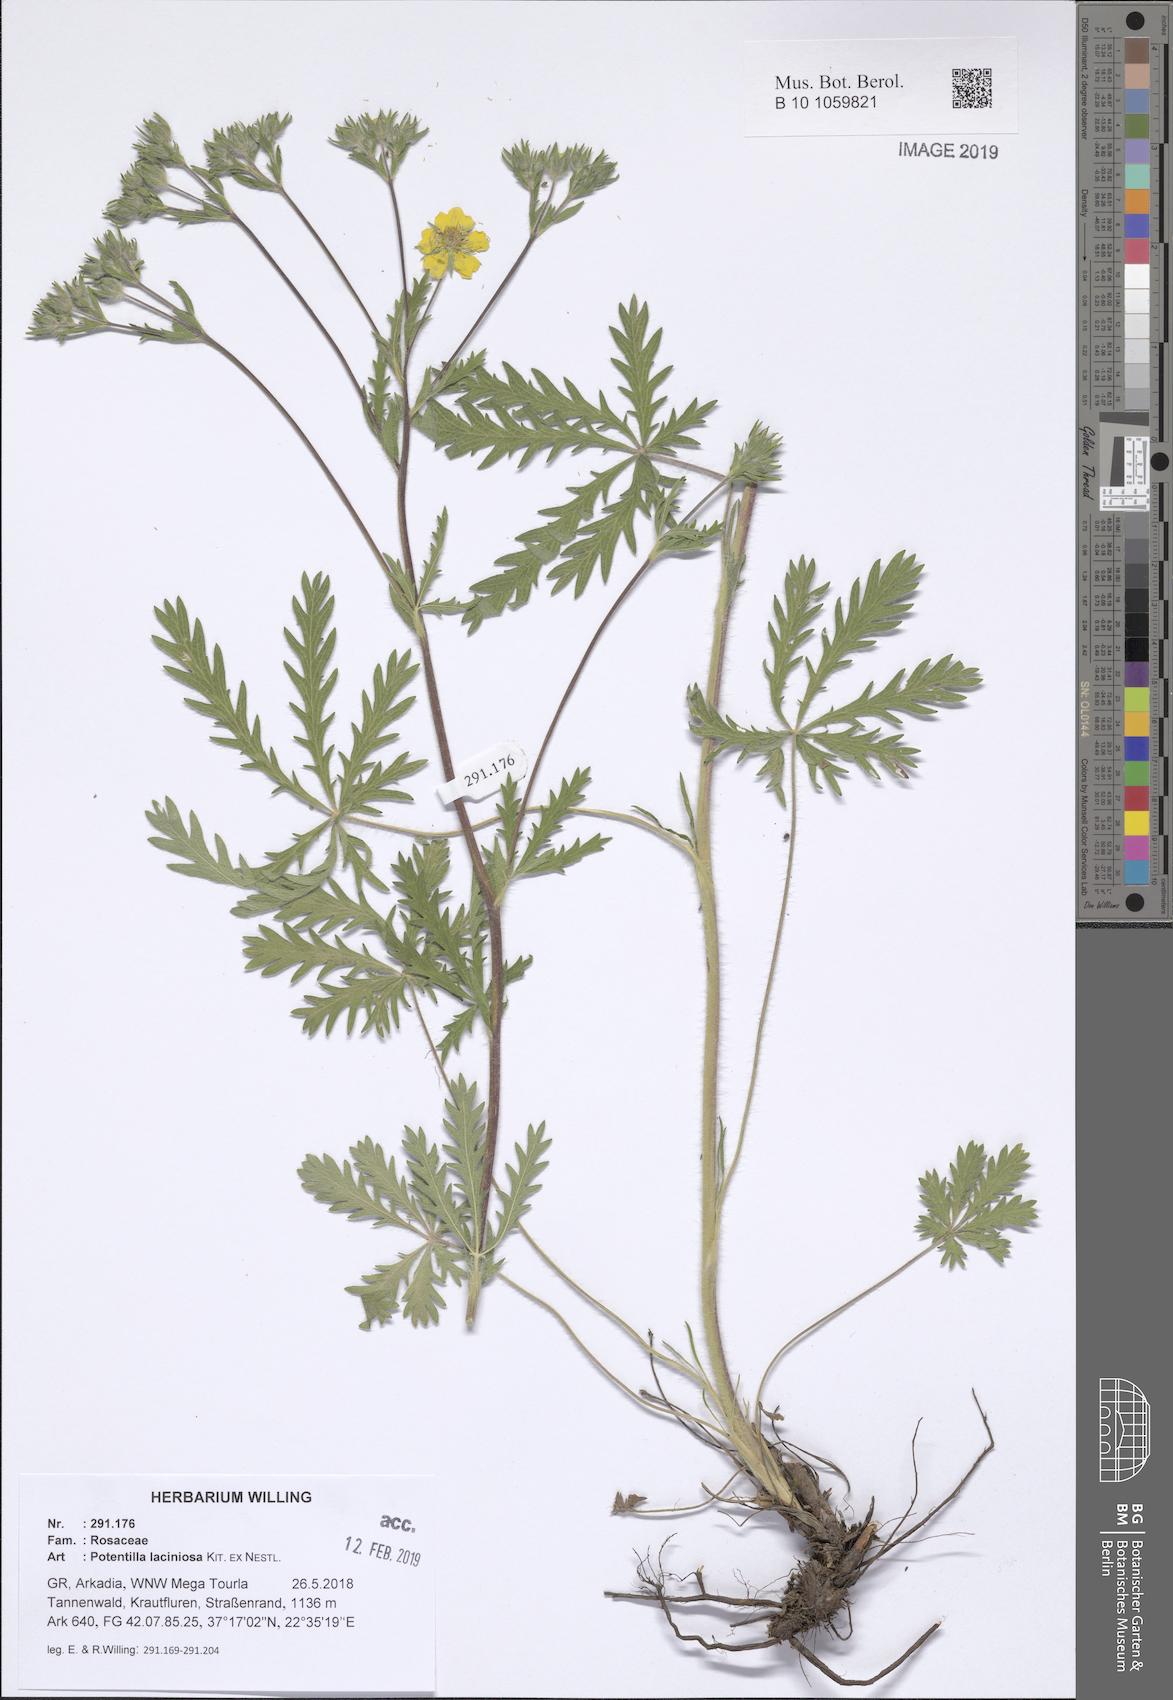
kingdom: Plantae
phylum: Tracheophyta
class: Magnoliopsida
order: Rosales
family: Rosaceae
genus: Potentilla
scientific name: Potentilla recta
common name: Sulphur cinquefoil
